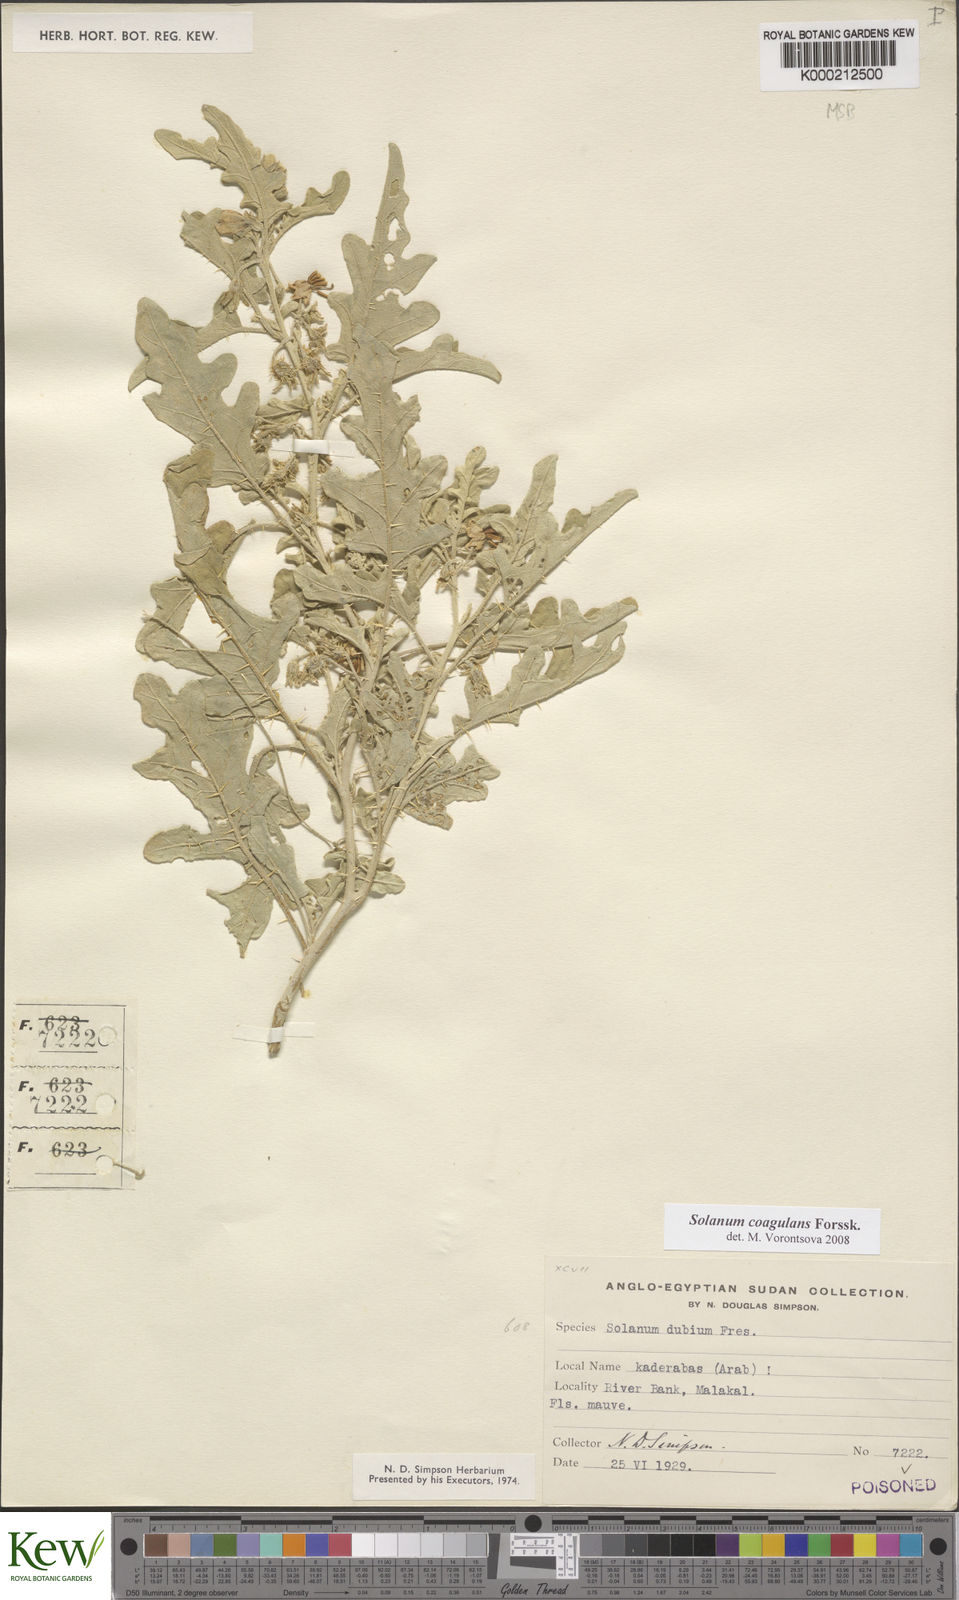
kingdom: Plantae
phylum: Tracheophyta
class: Magnoliopsida
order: Solanales
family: Solanaceae
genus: Solanum
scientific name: Solanum coagulans
